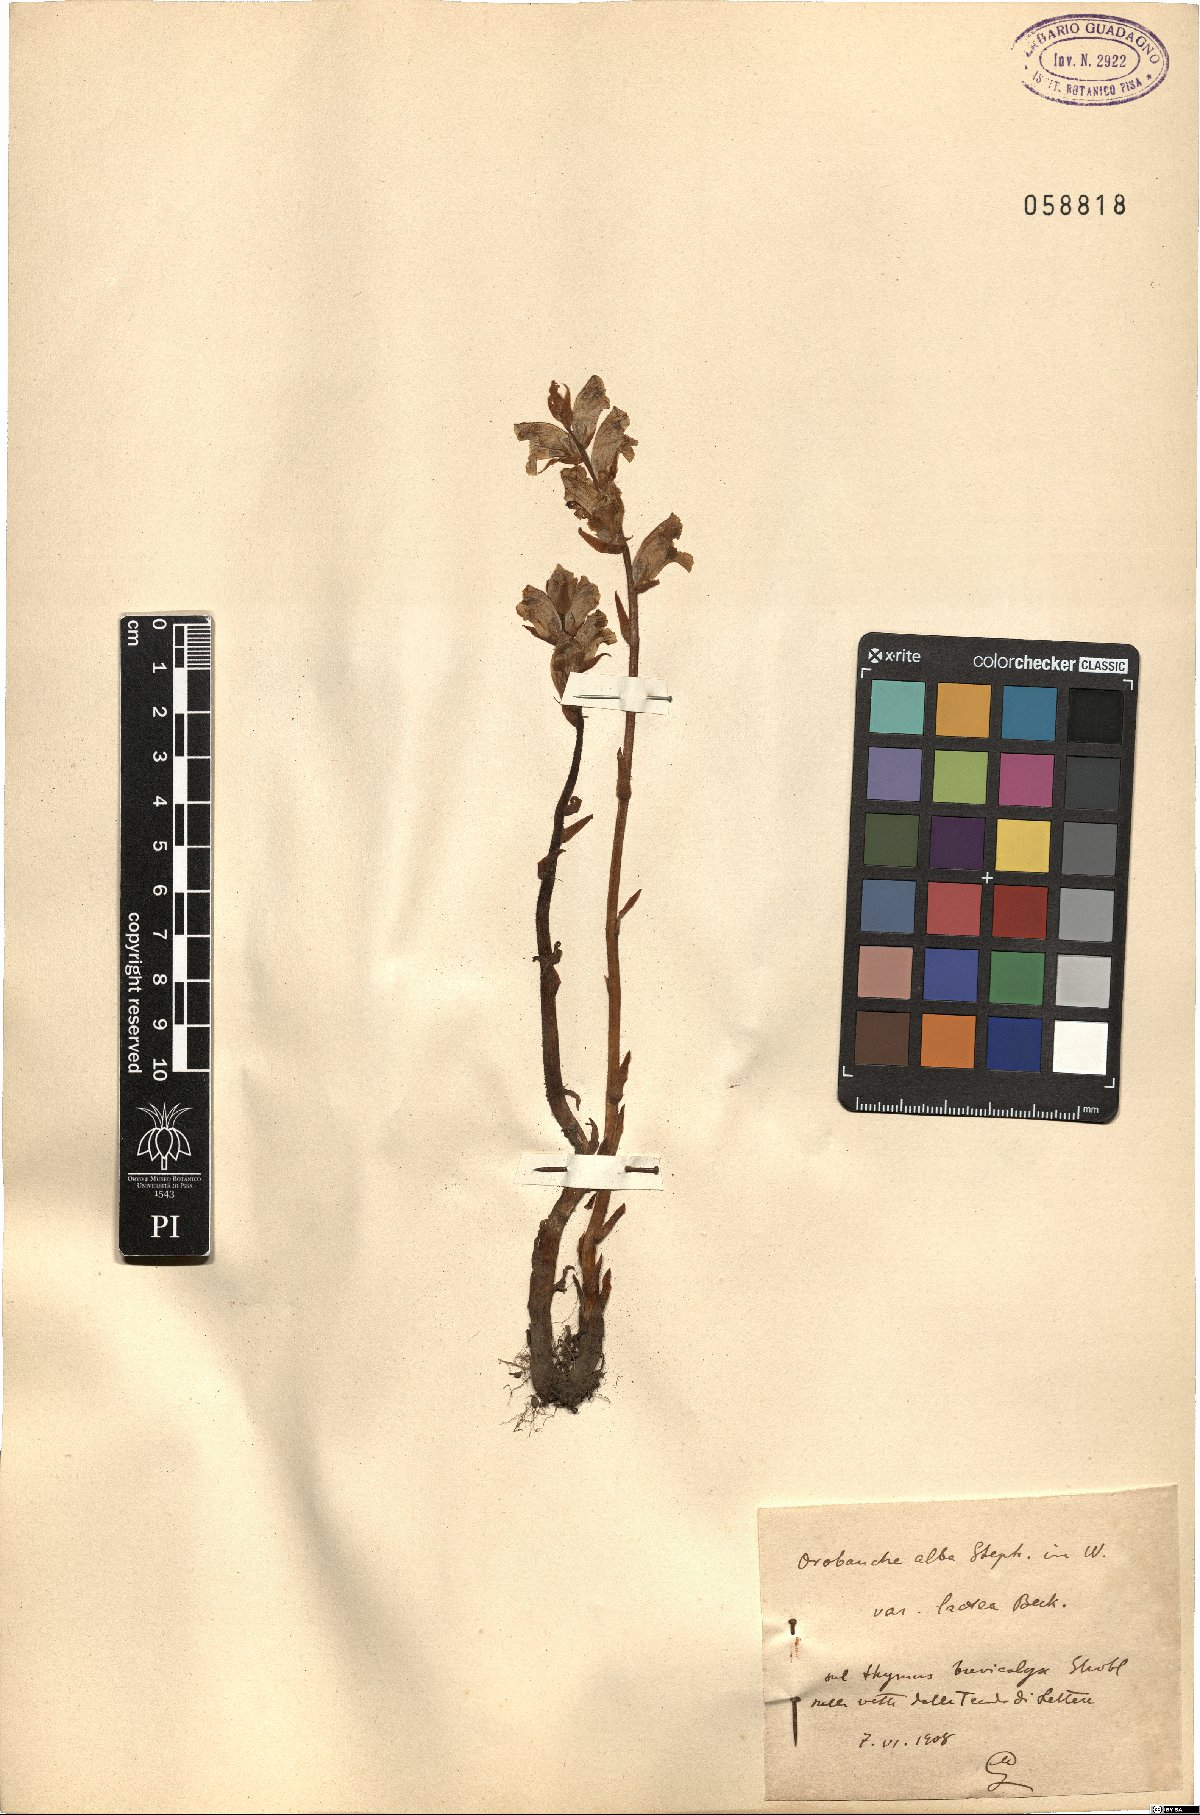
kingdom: Plantae
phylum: Tracheophyta
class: Magnoliopsida
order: Lamiales
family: Orobanchaceae
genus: Orobanche
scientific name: Orobanche alba
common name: Thyme broomrape
